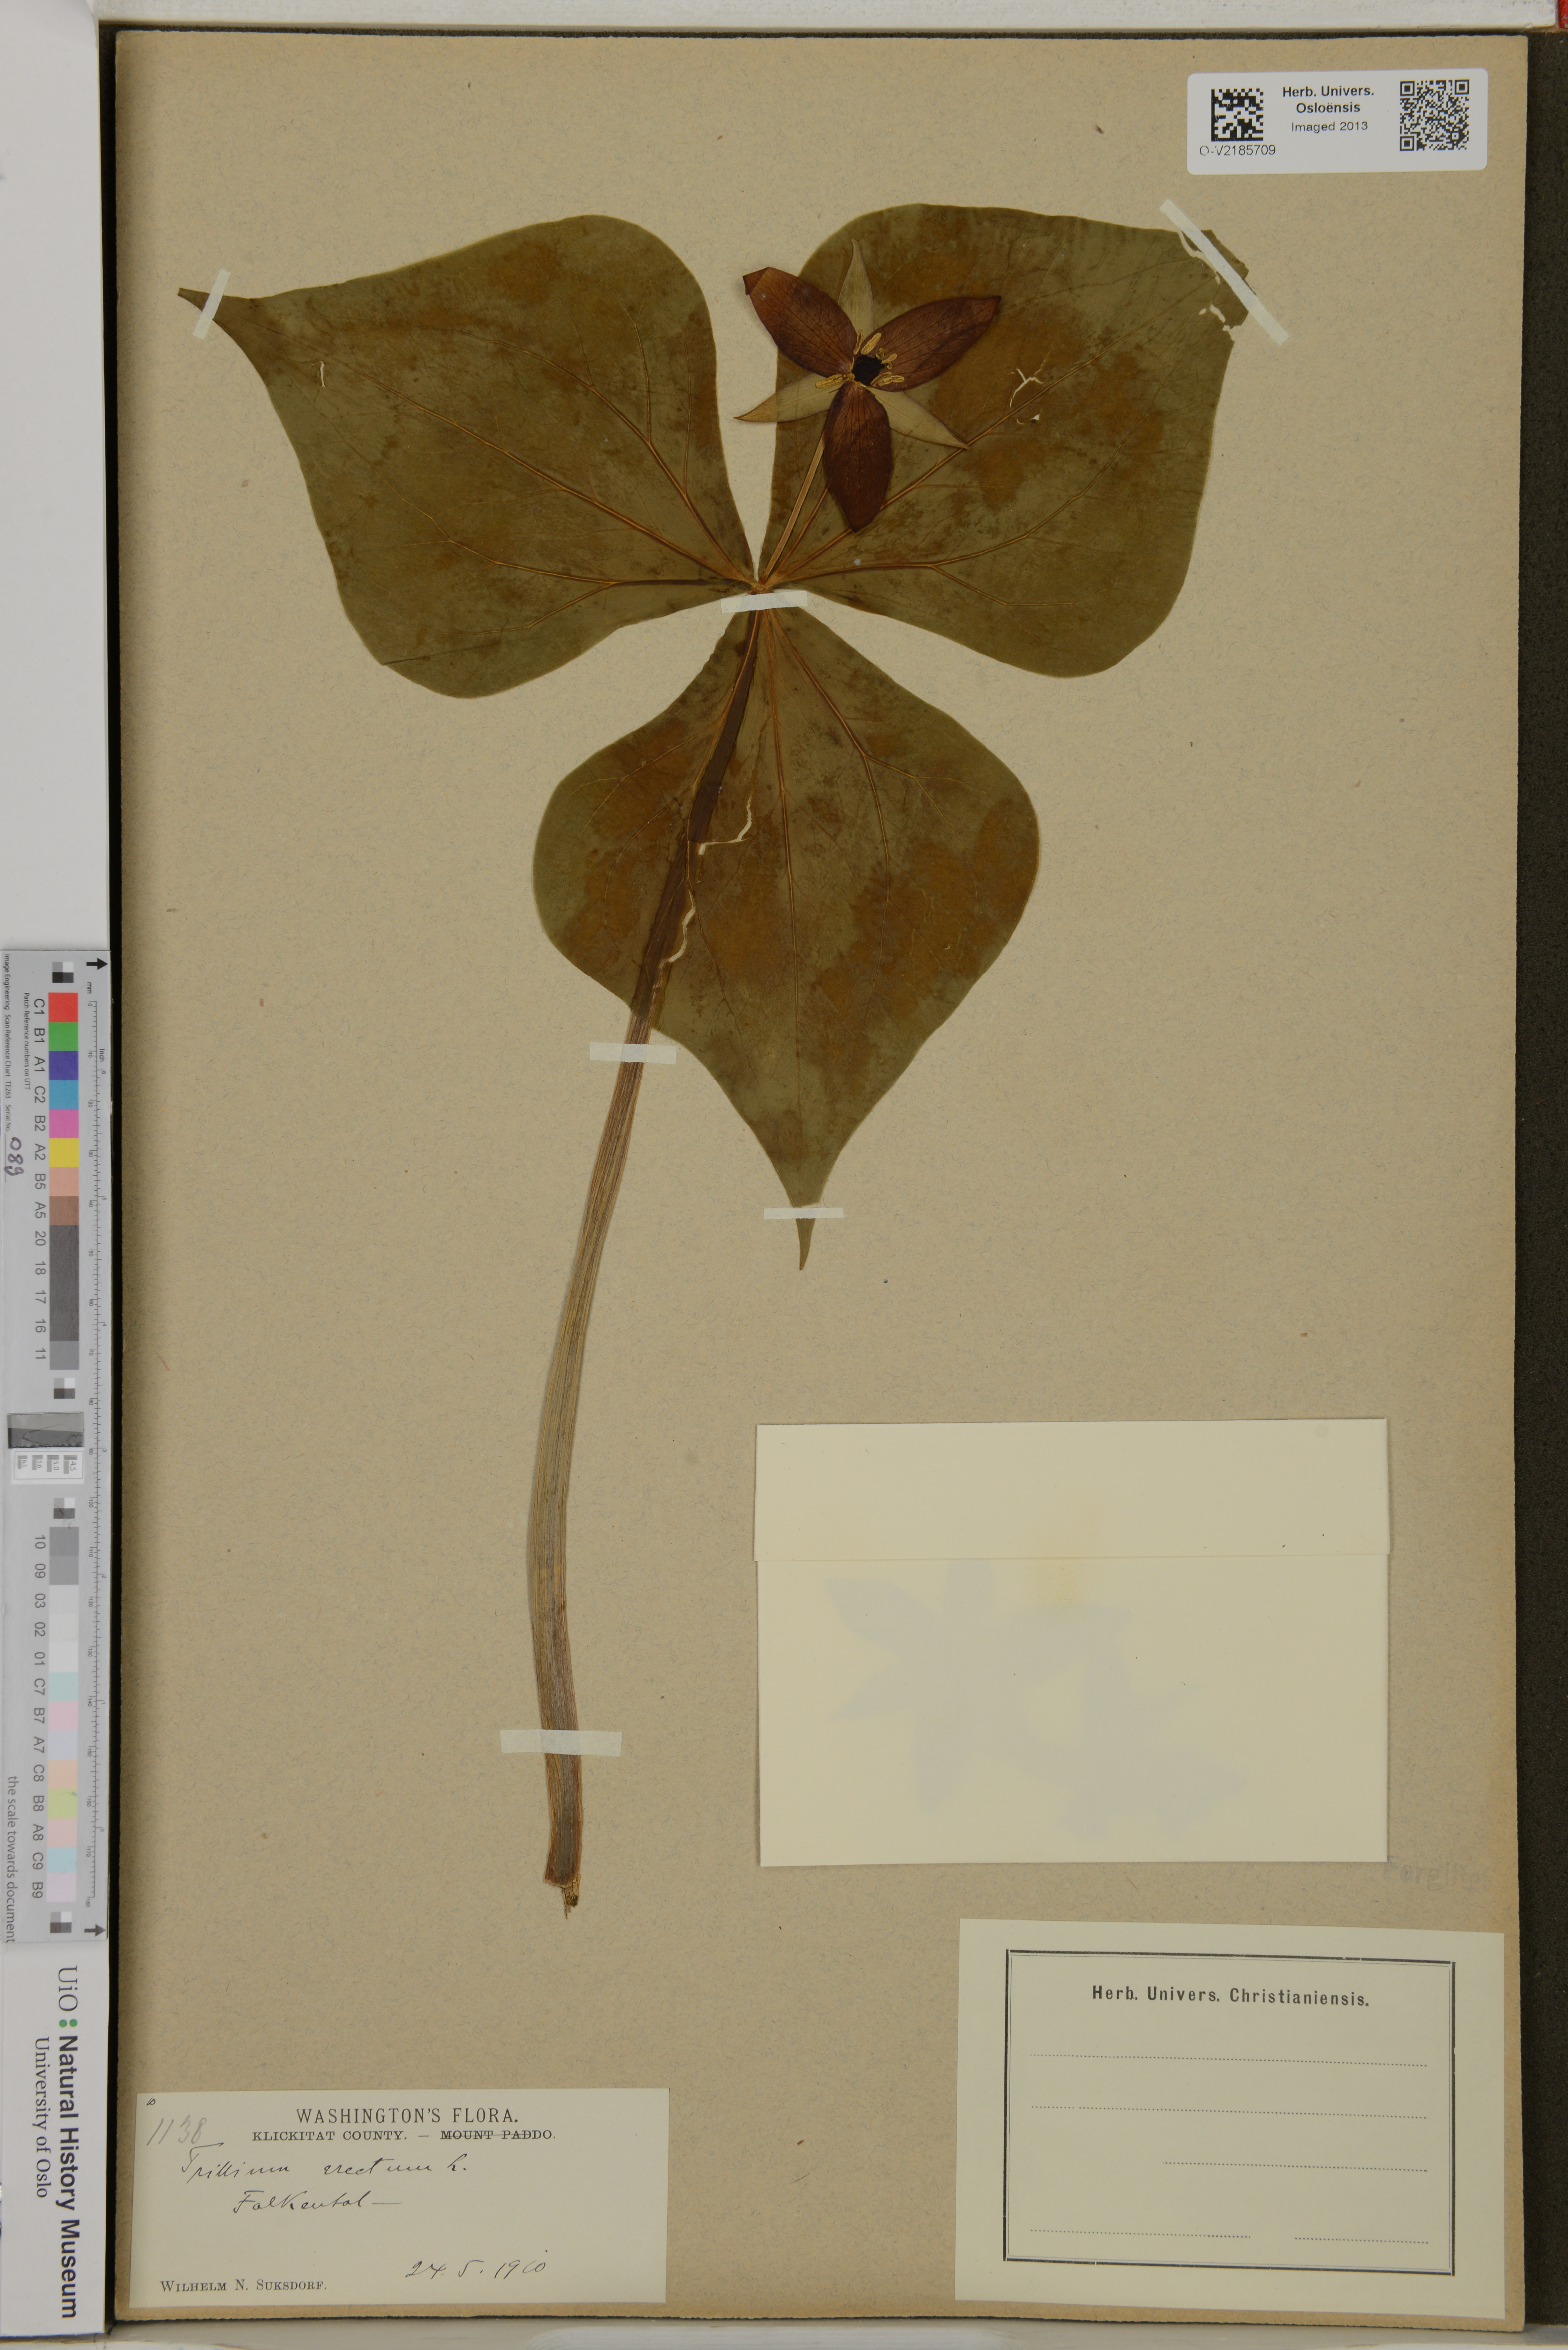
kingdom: Plantae
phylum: Tracheophyta
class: Liliopsida
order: Liliales
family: Melanthiaceae
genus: Trillium
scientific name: Trillium erectum
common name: Purple trillium
